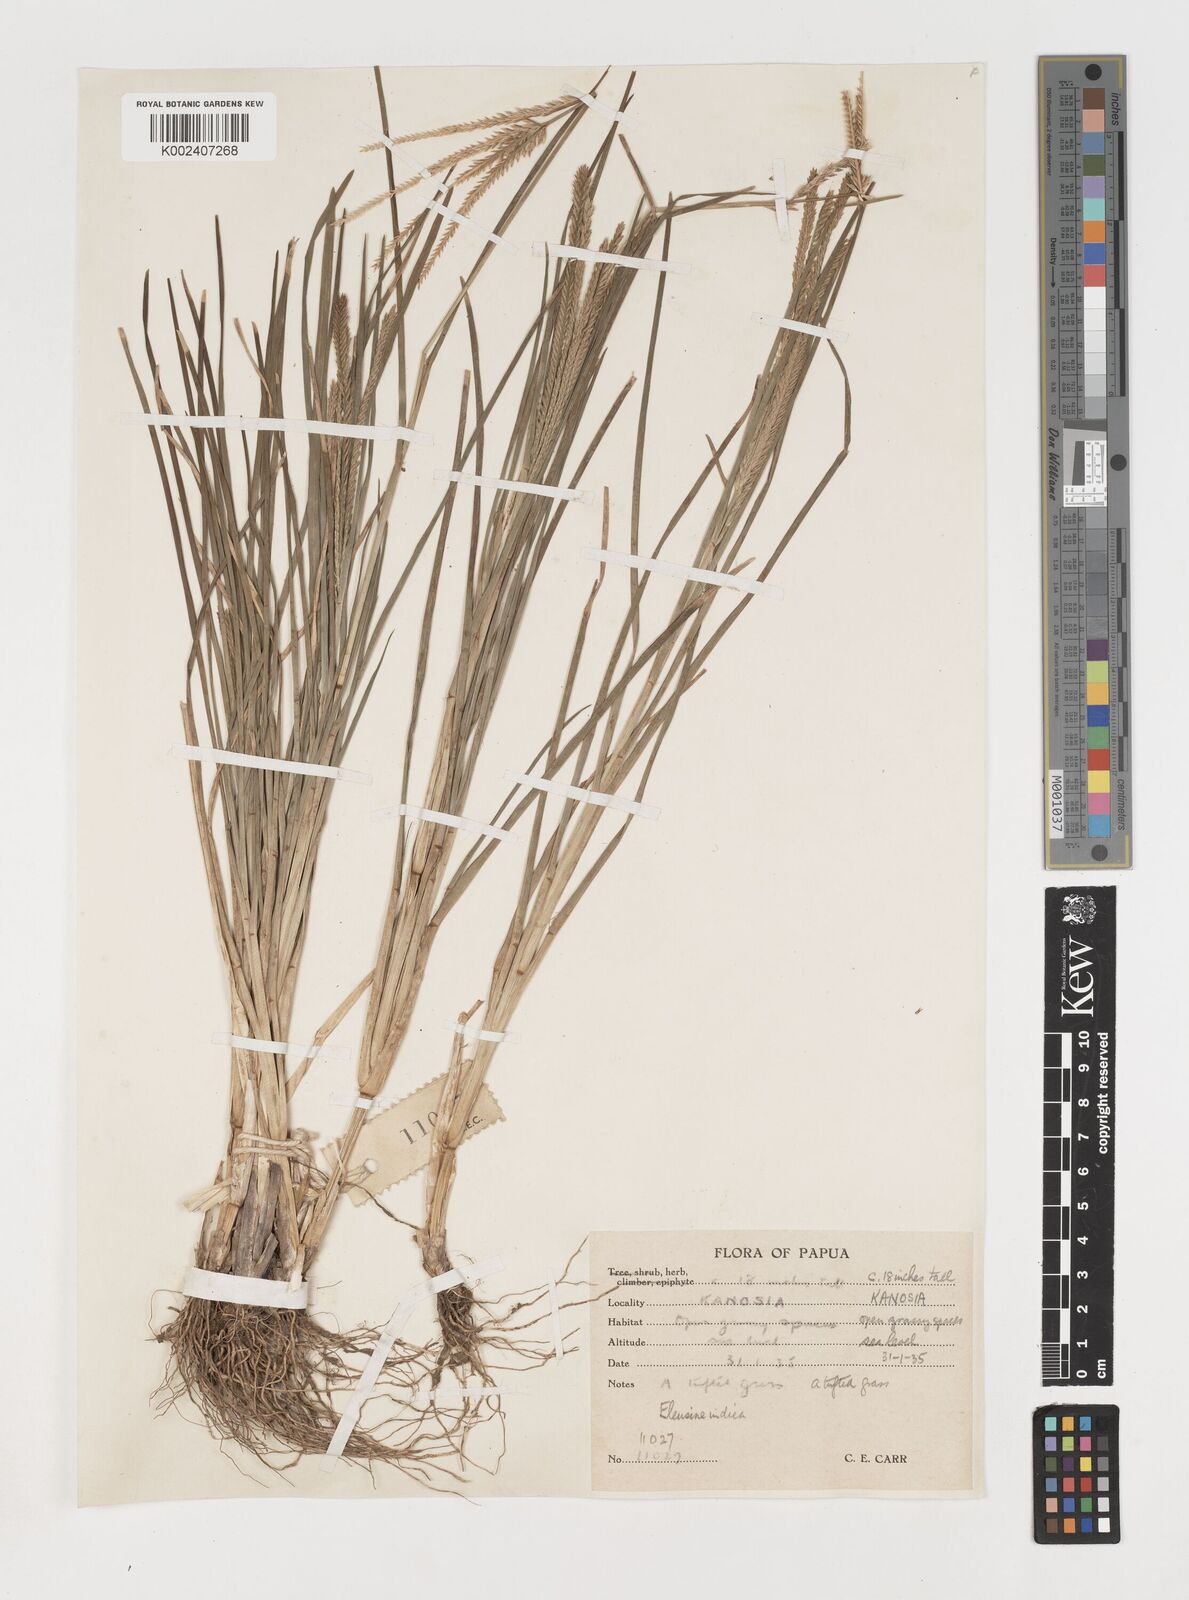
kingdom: Plantae
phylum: Tracheophyta
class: Liliopsida
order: Poales
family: Poaceae
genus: Eleusine
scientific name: Eleusine indica
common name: Yard-grass
